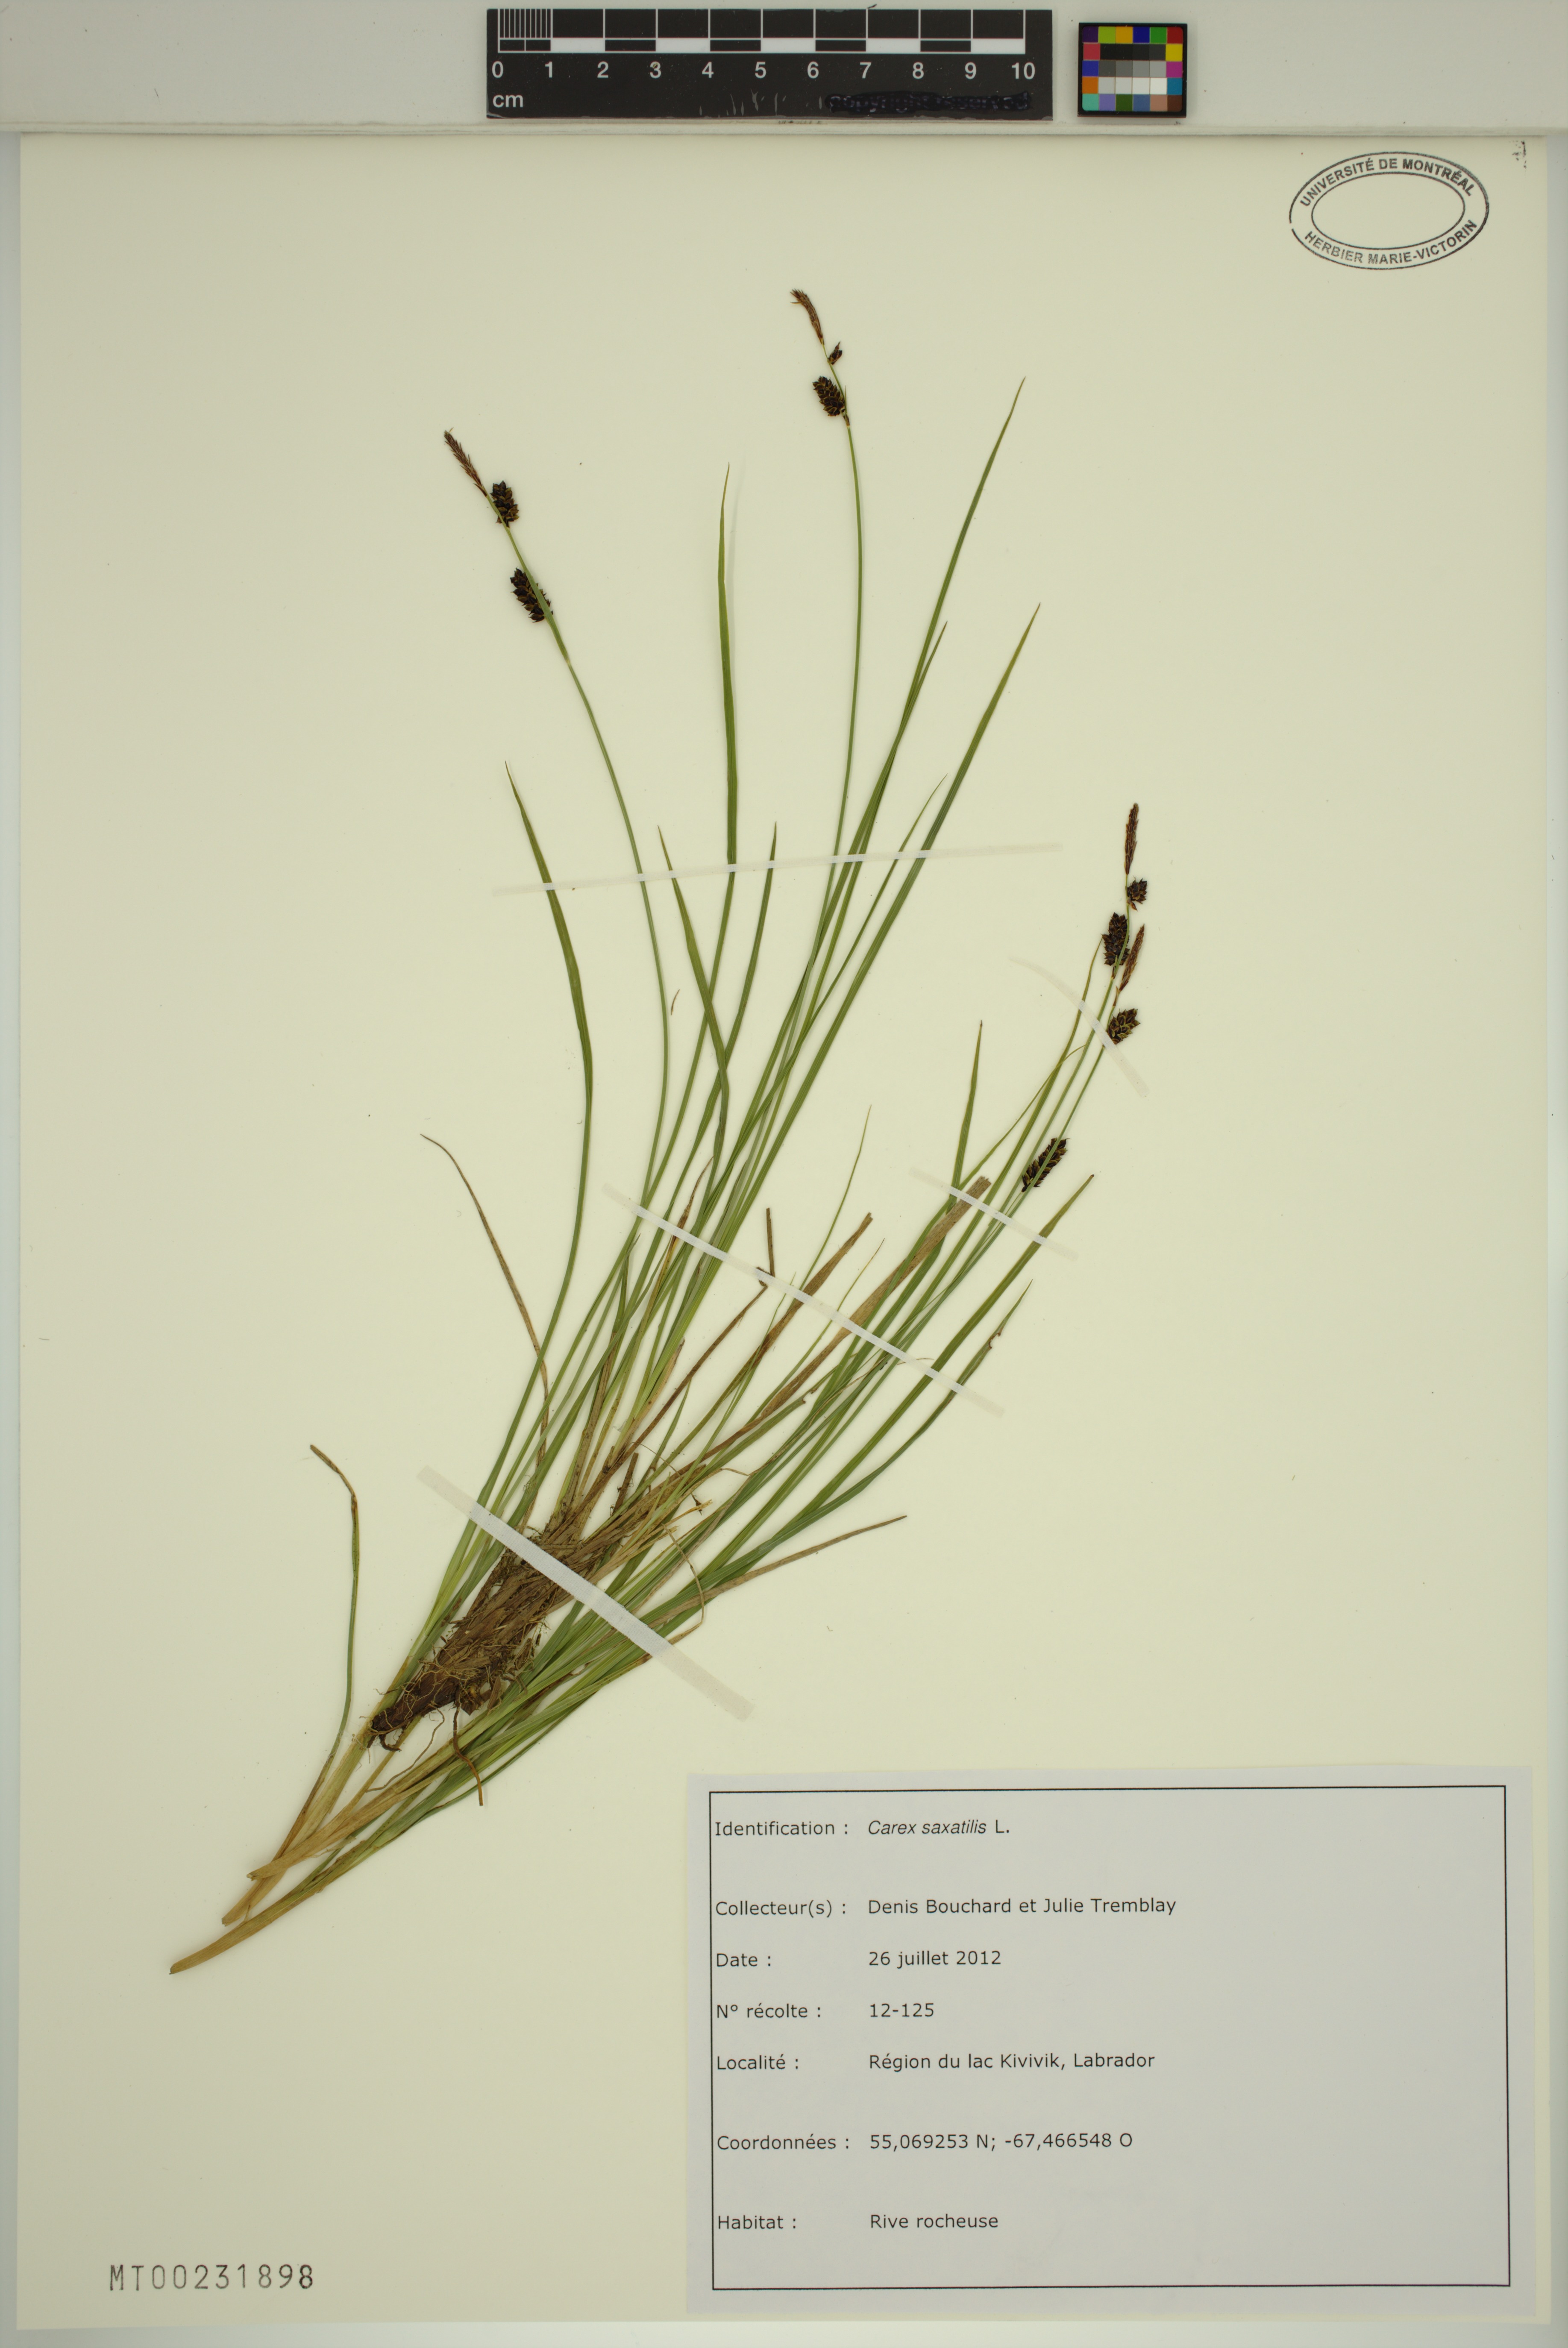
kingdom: Plantae
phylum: Tracheophyta
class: Liliopsida
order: Poales
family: Cyperaceae
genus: Carex
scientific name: Carex saxatilis
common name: Russet sedge
